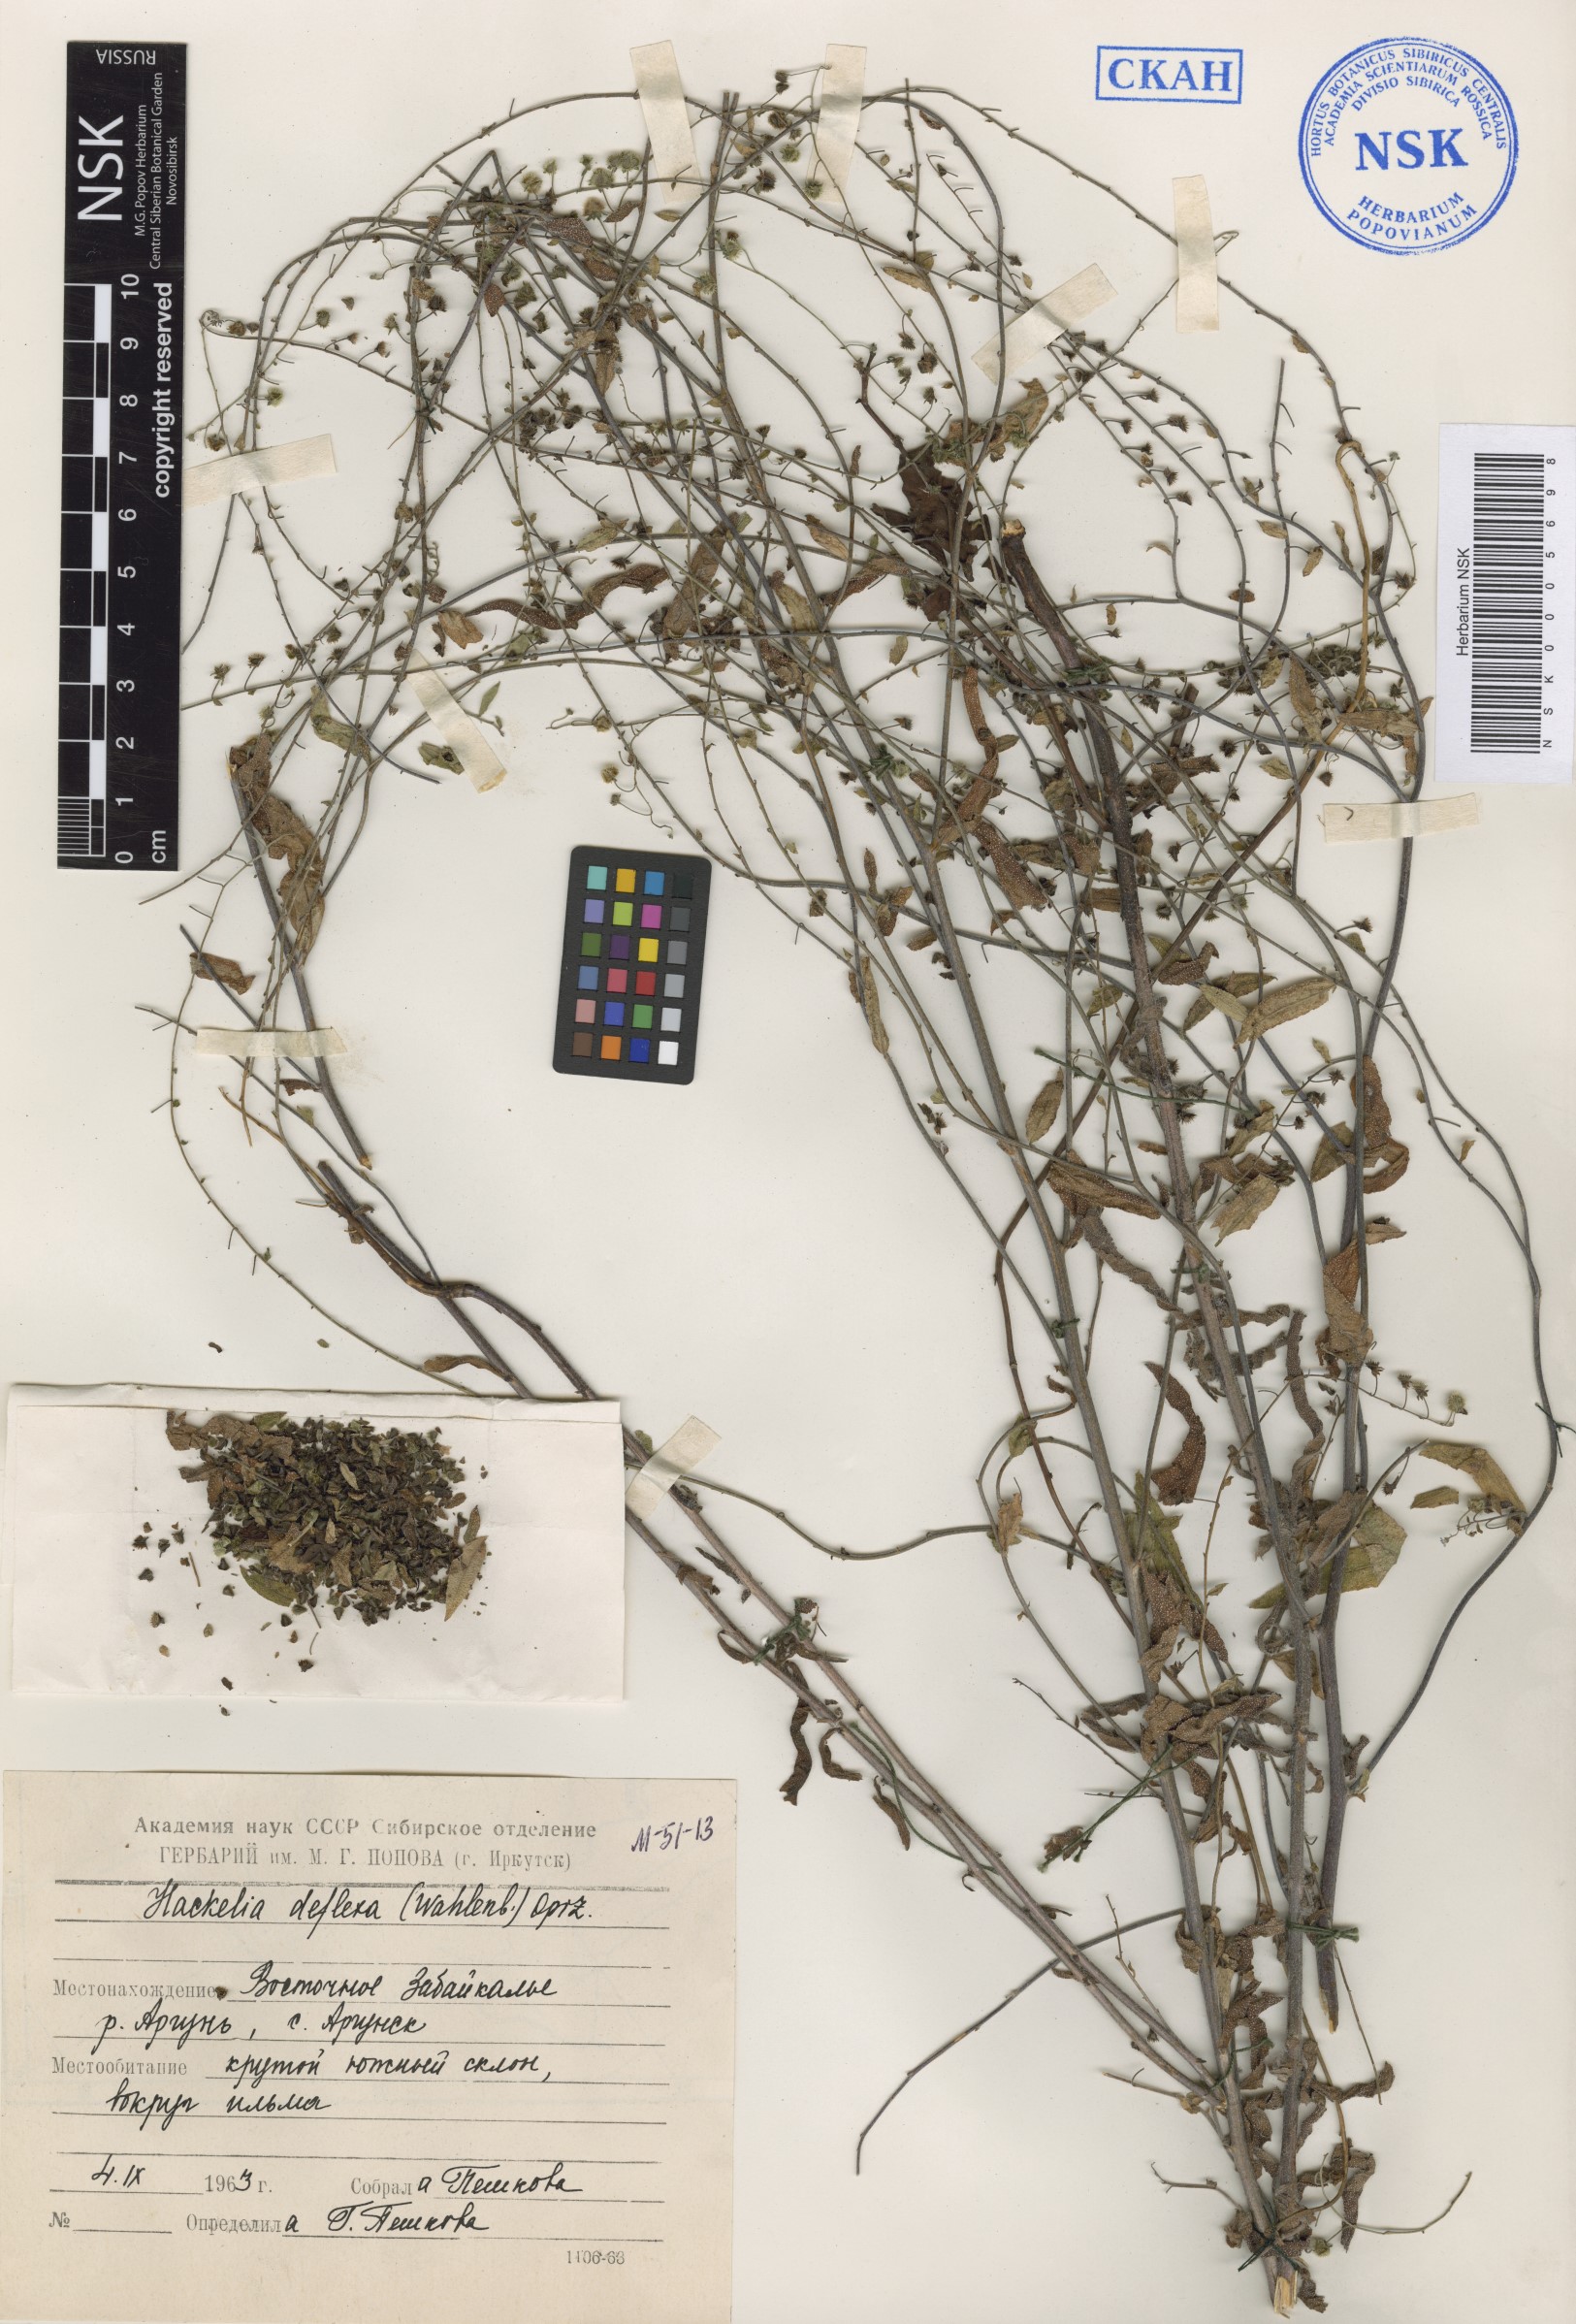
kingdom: Plantae
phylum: Tracheophyta
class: Magnoliopsida
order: Boraginales
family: Boraginaceae
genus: Hackelia
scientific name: Hackelia deflexa
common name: Nodding stickseed
